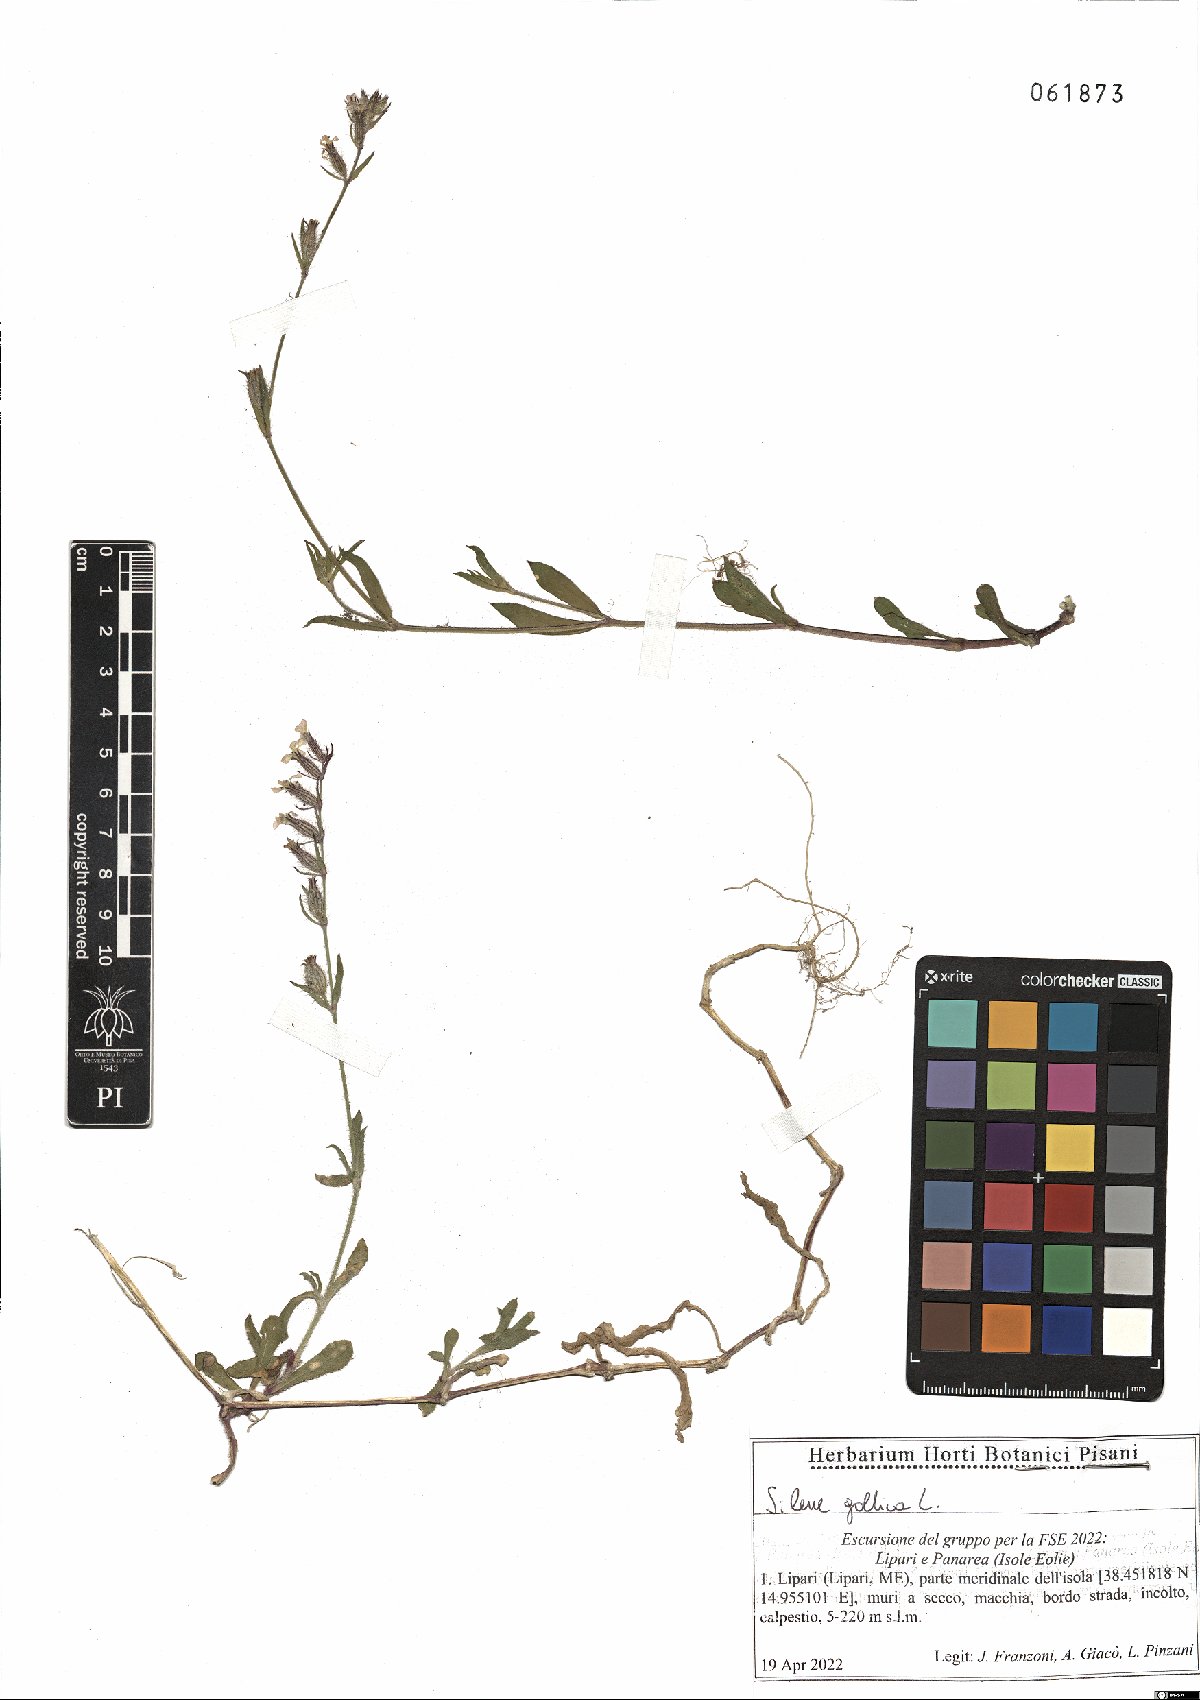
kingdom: Plantae
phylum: Tracheophyta
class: Magnoliopsida
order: Caryophyllales
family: Caryophyllaceae
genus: Silene
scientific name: Silene gallica
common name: Small-flowered catchfly
